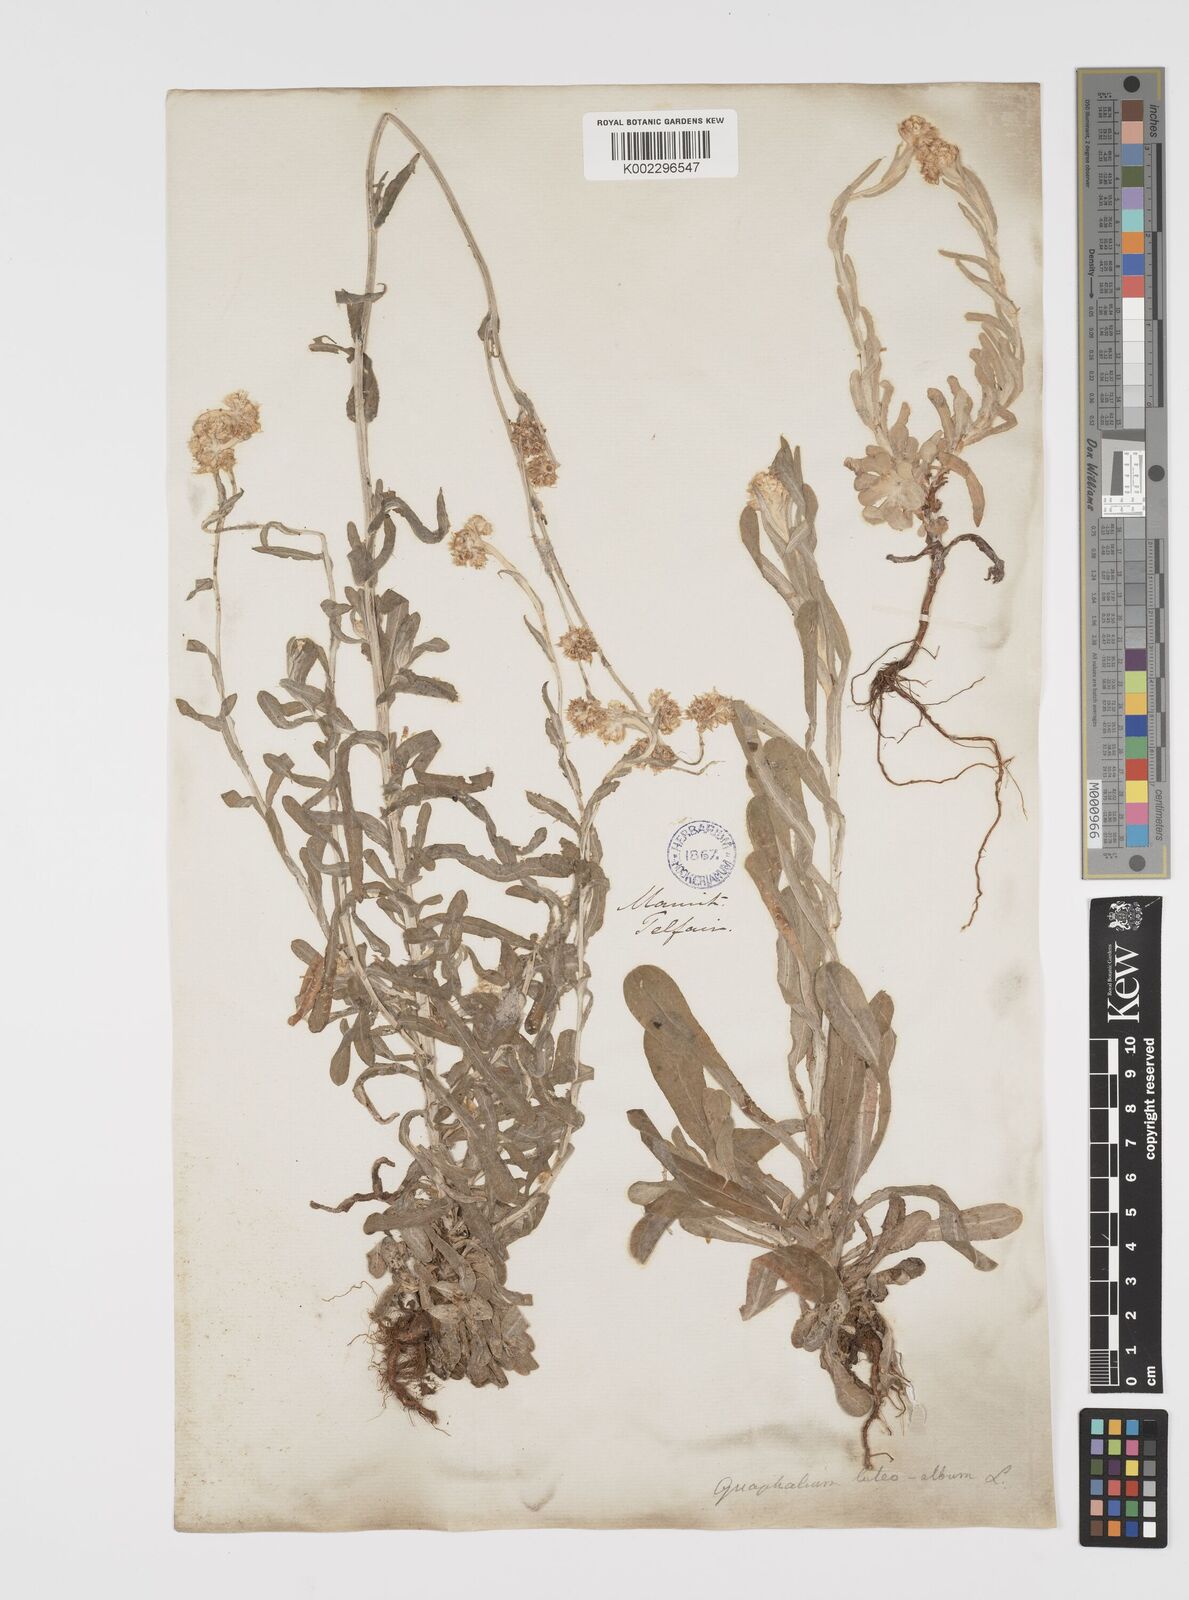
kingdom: Plantae
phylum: Tracheophyta
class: Magnoliopsida
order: Asterales
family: Asteraceae
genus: Helichrysum
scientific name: Helichrysum luteoalbum
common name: Daisy
